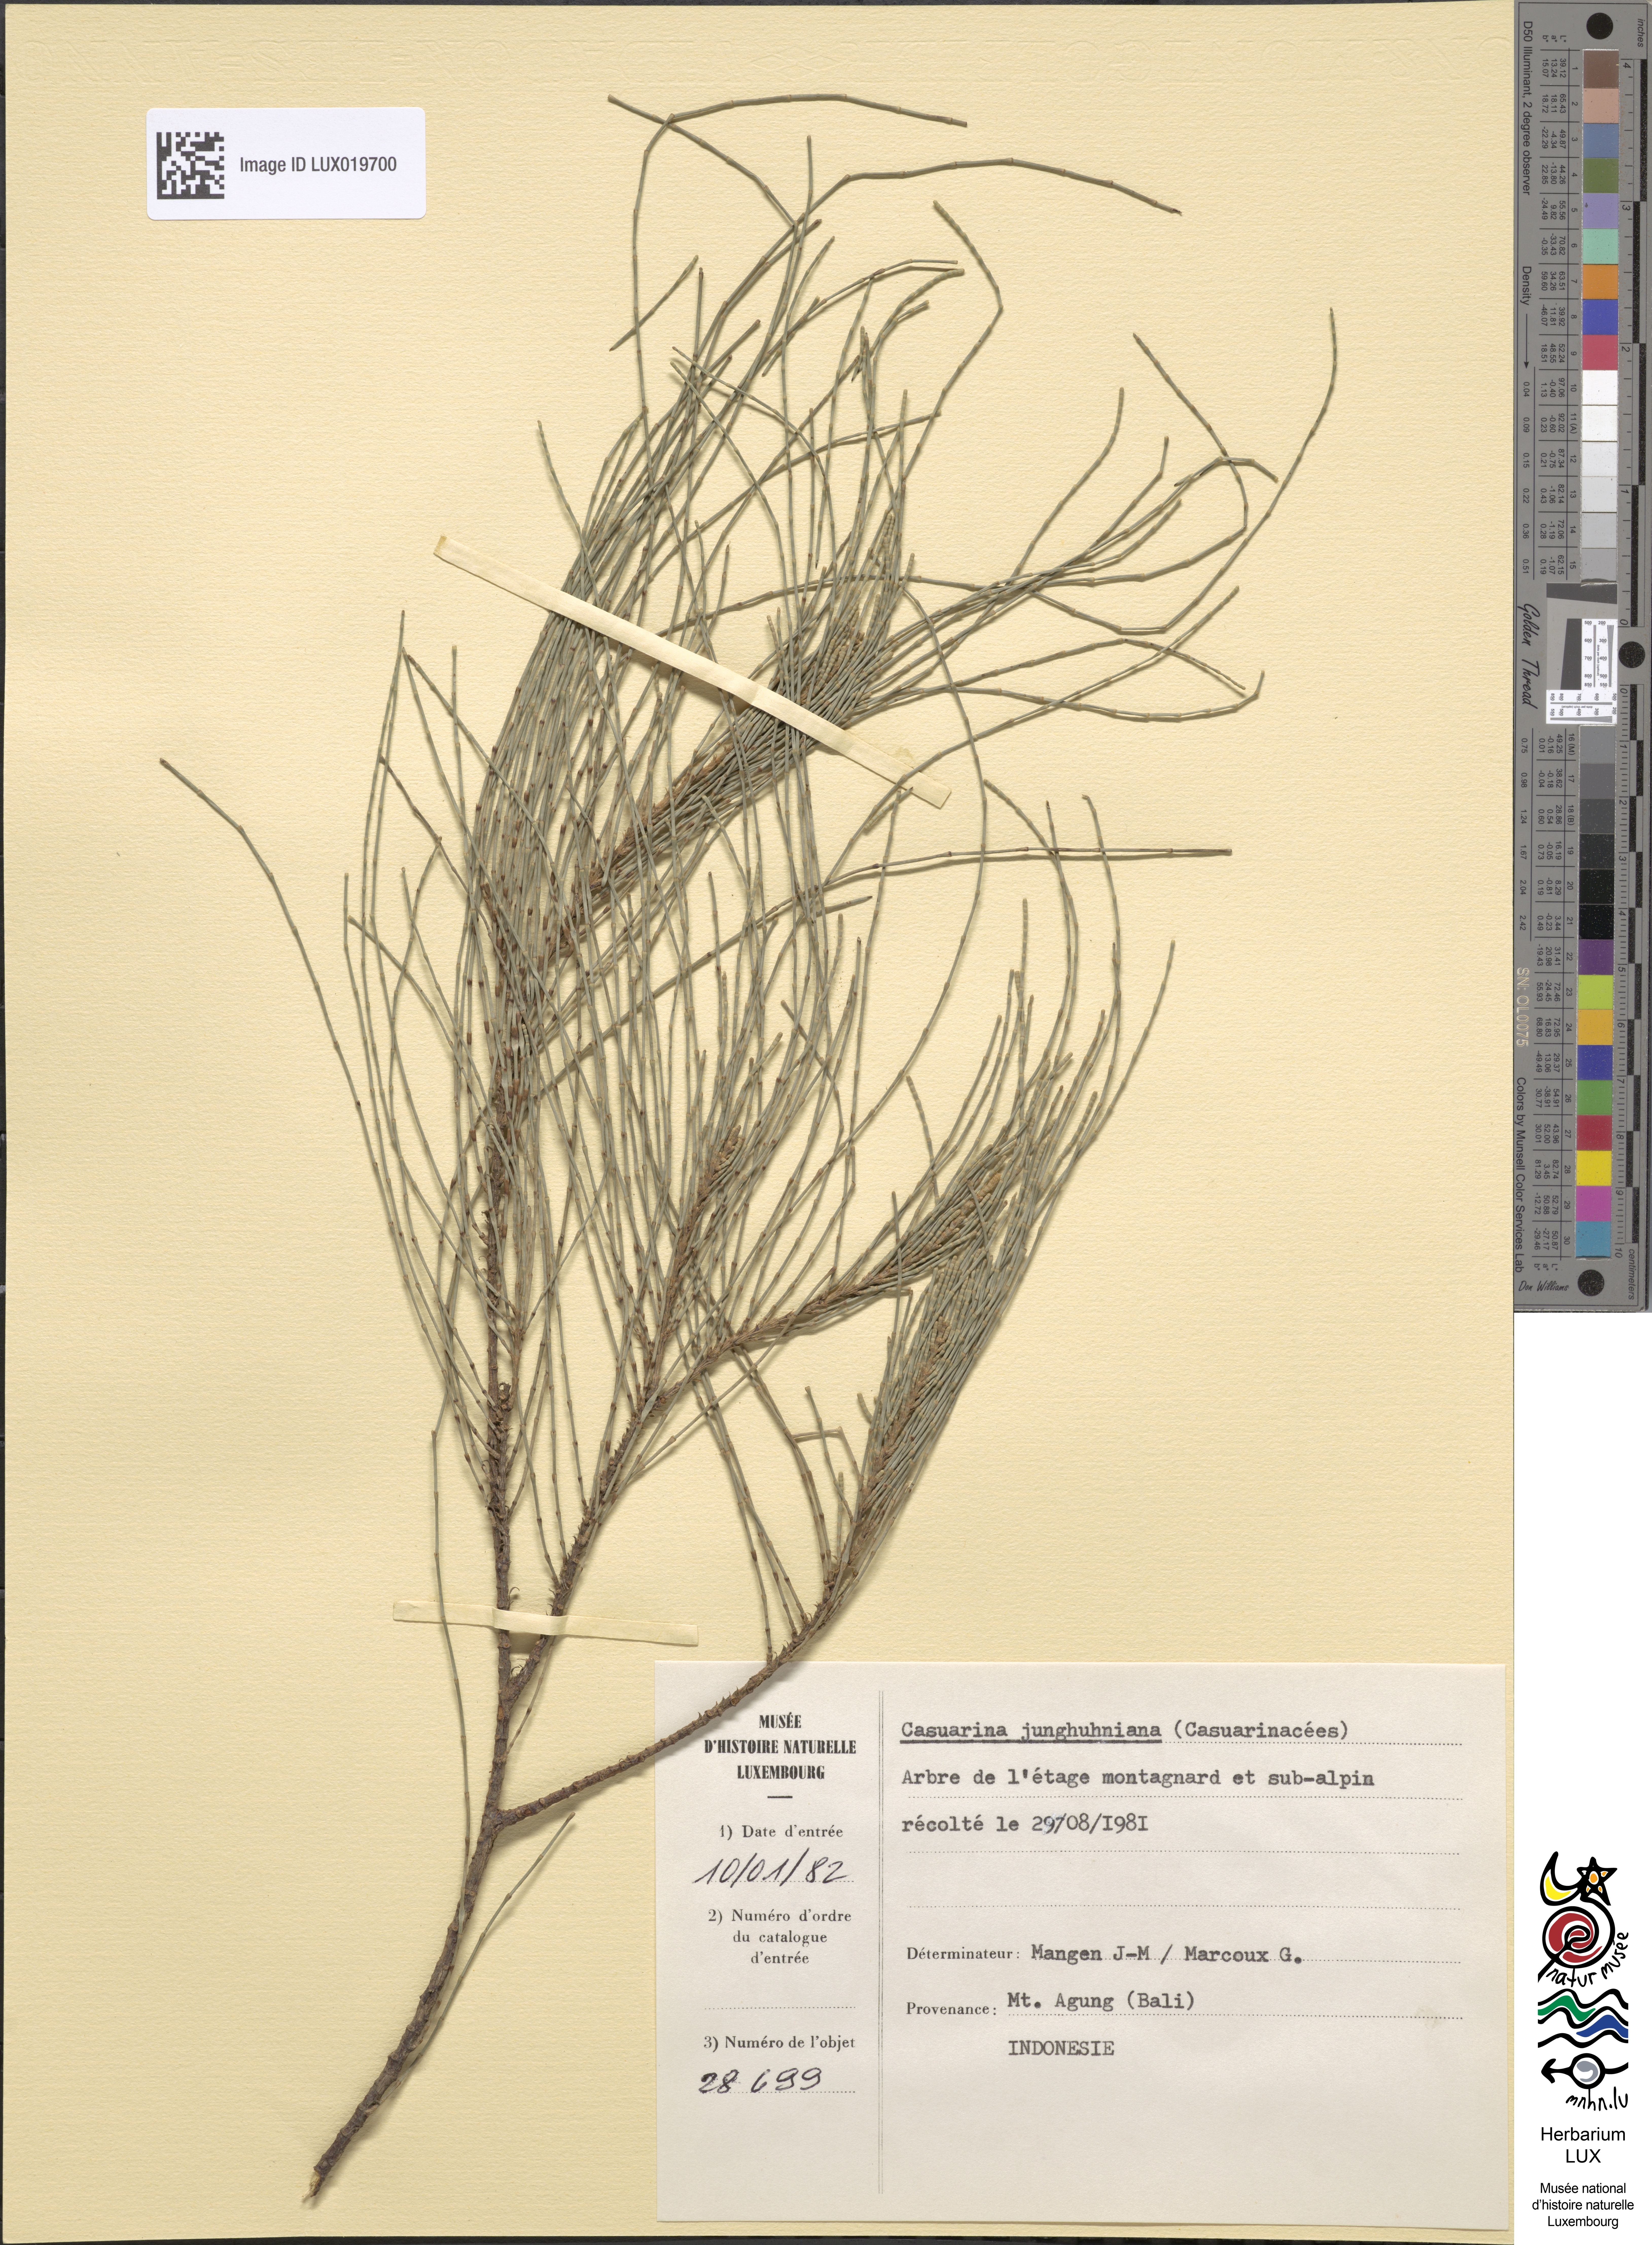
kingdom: Plantae
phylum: Tracheophyta
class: Magnoliopsida
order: Fagales
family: Casuarinaceae
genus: Casuarina
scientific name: Casuarina junghuhniana
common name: Mountain ru
